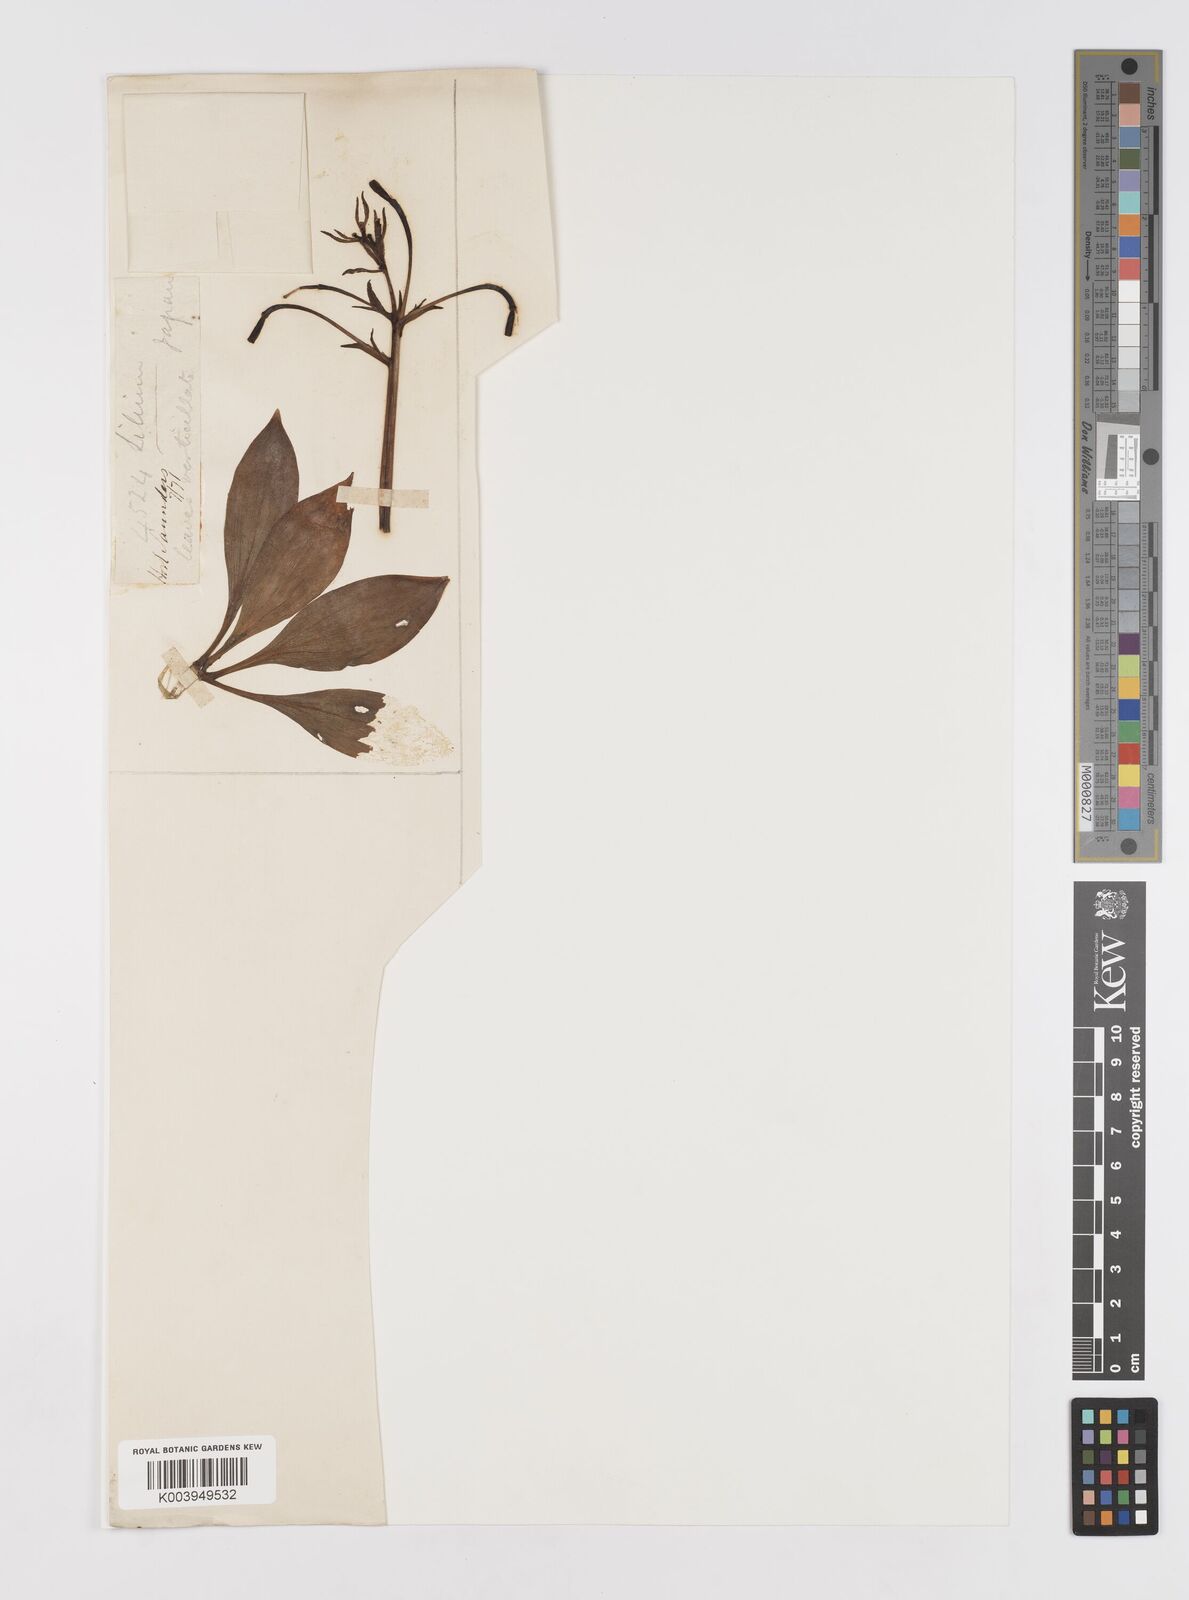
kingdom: Plantae
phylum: Tracheophyta
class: Liliopsida
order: Liliales
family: Liliaceae
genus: Lilium
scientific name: Lilium medeoloides
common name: Wheel lily
